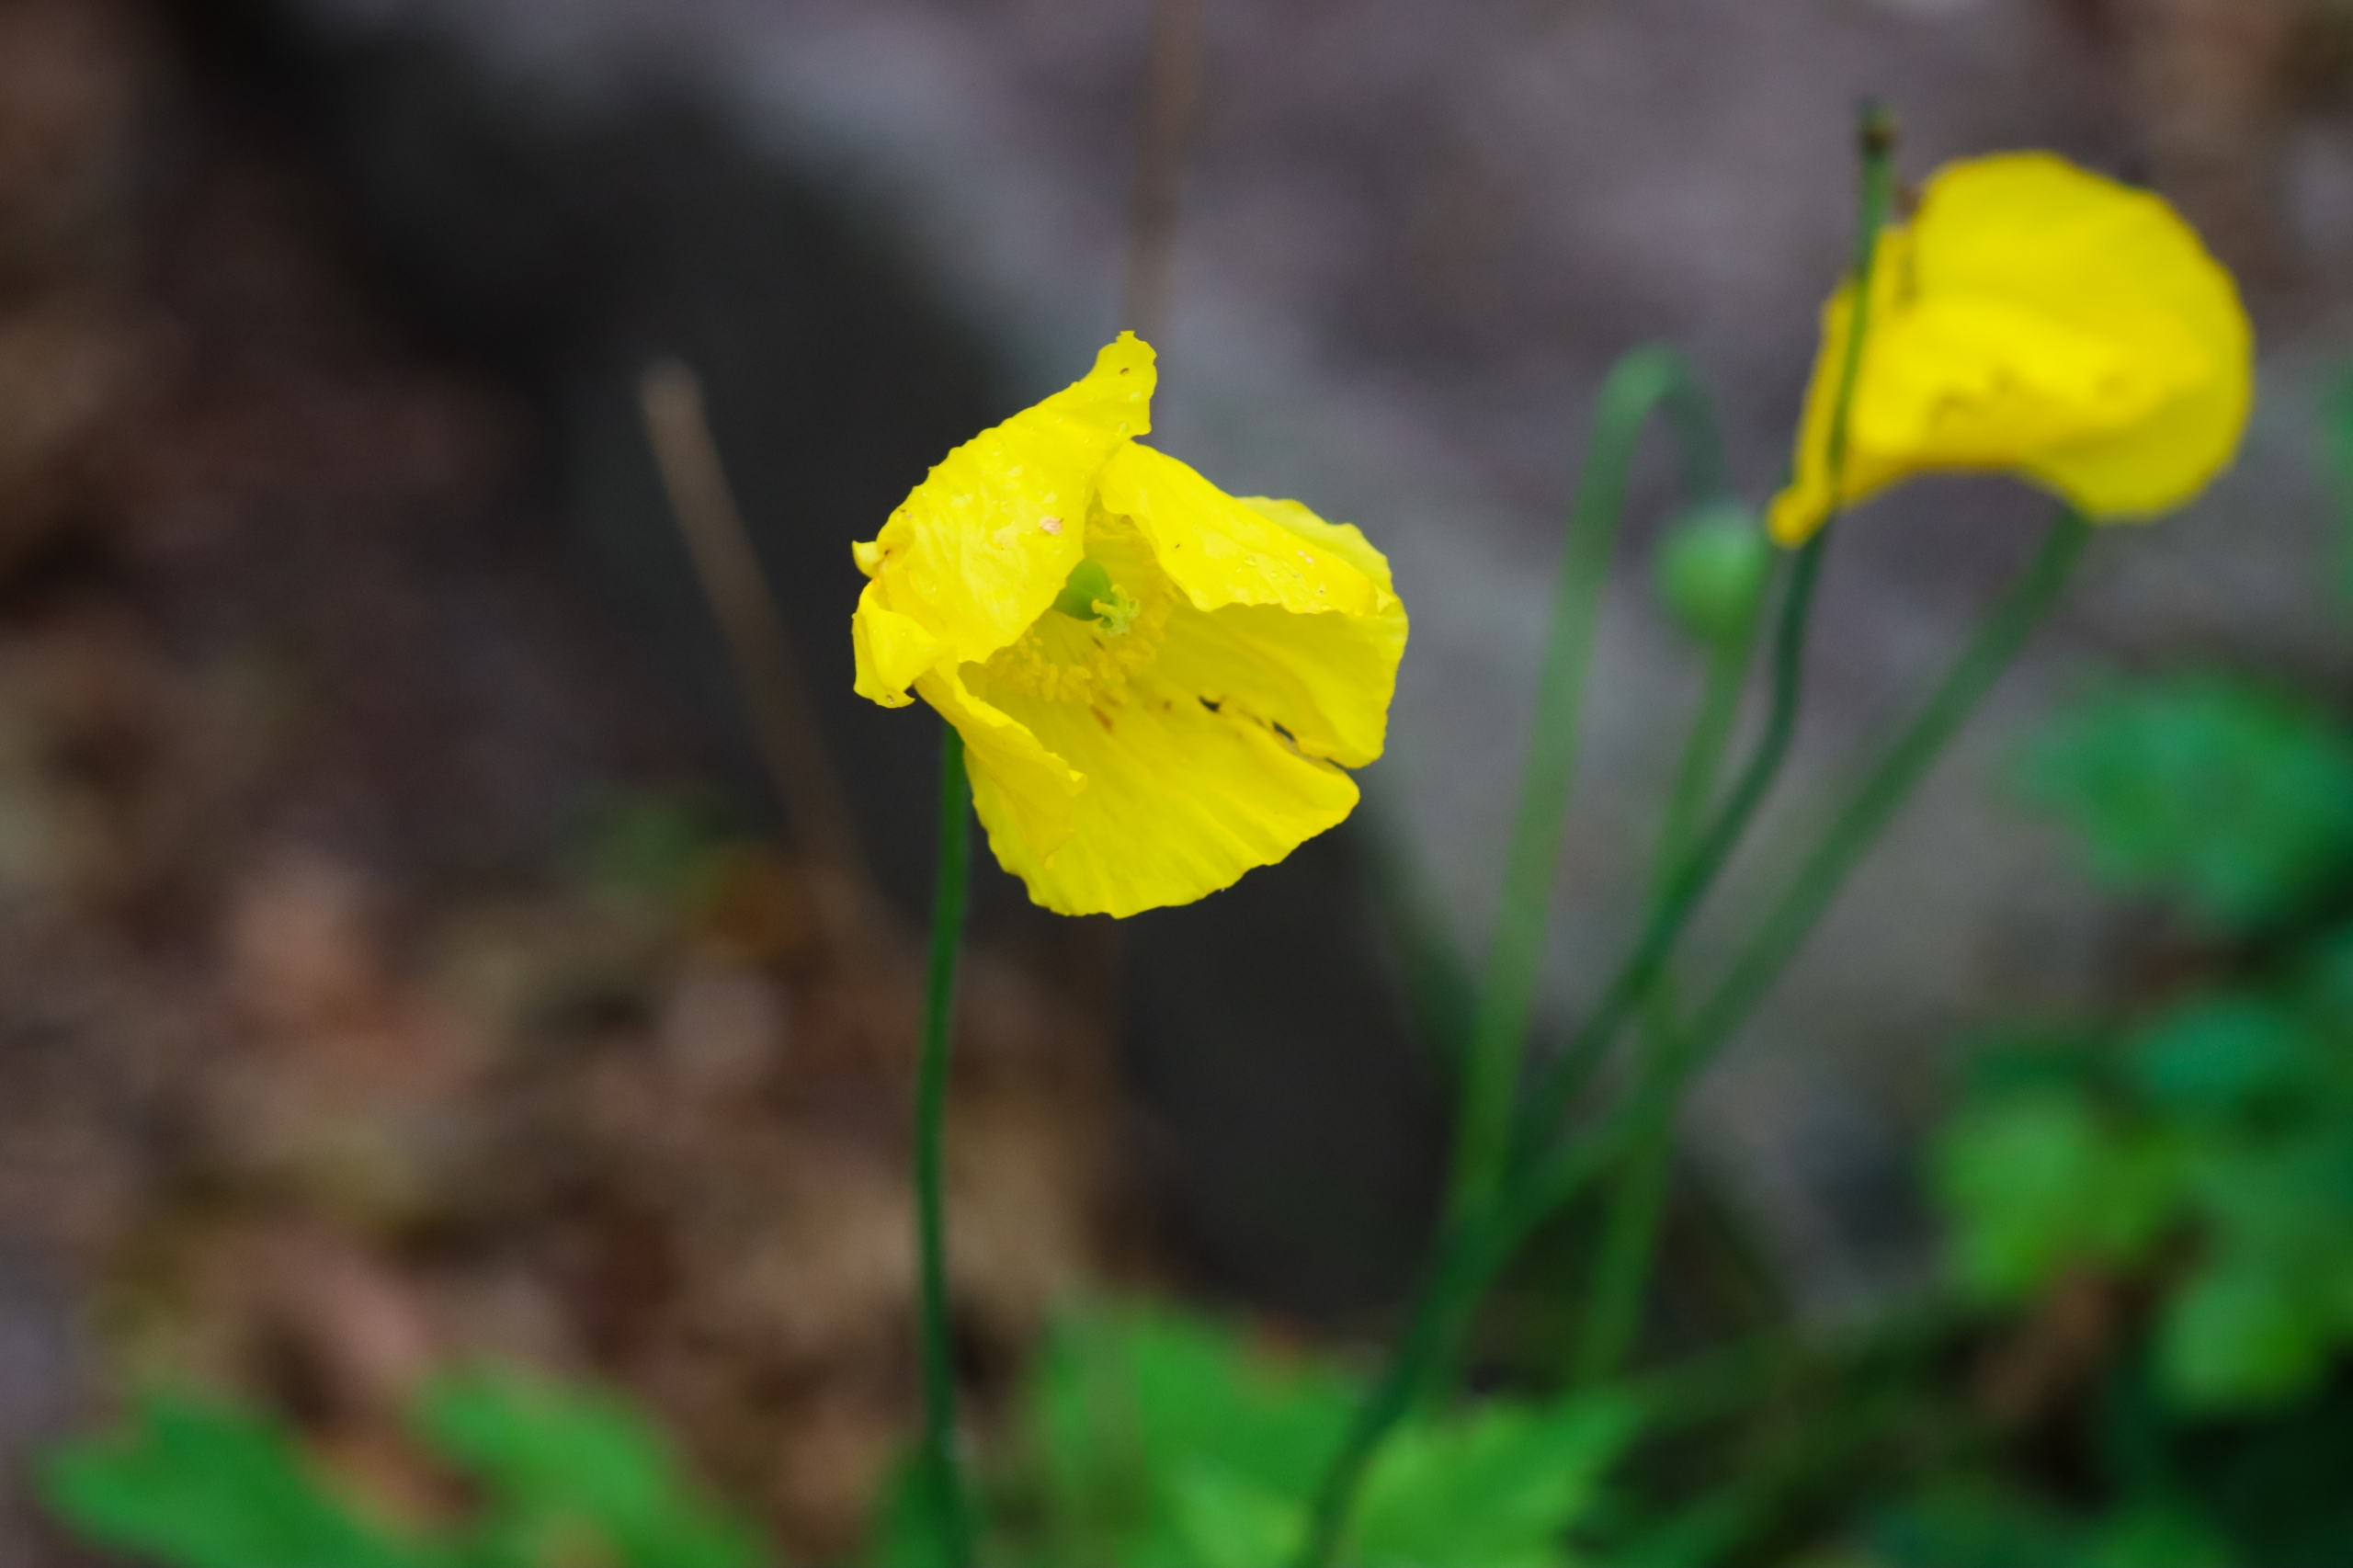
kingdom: Plantae
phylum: Tracheophyta
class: Magnoliopsida
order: Ranunculales
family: Papaveraceae
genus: Papaver
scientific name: Papaver cambricum
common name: Skov-valmue
